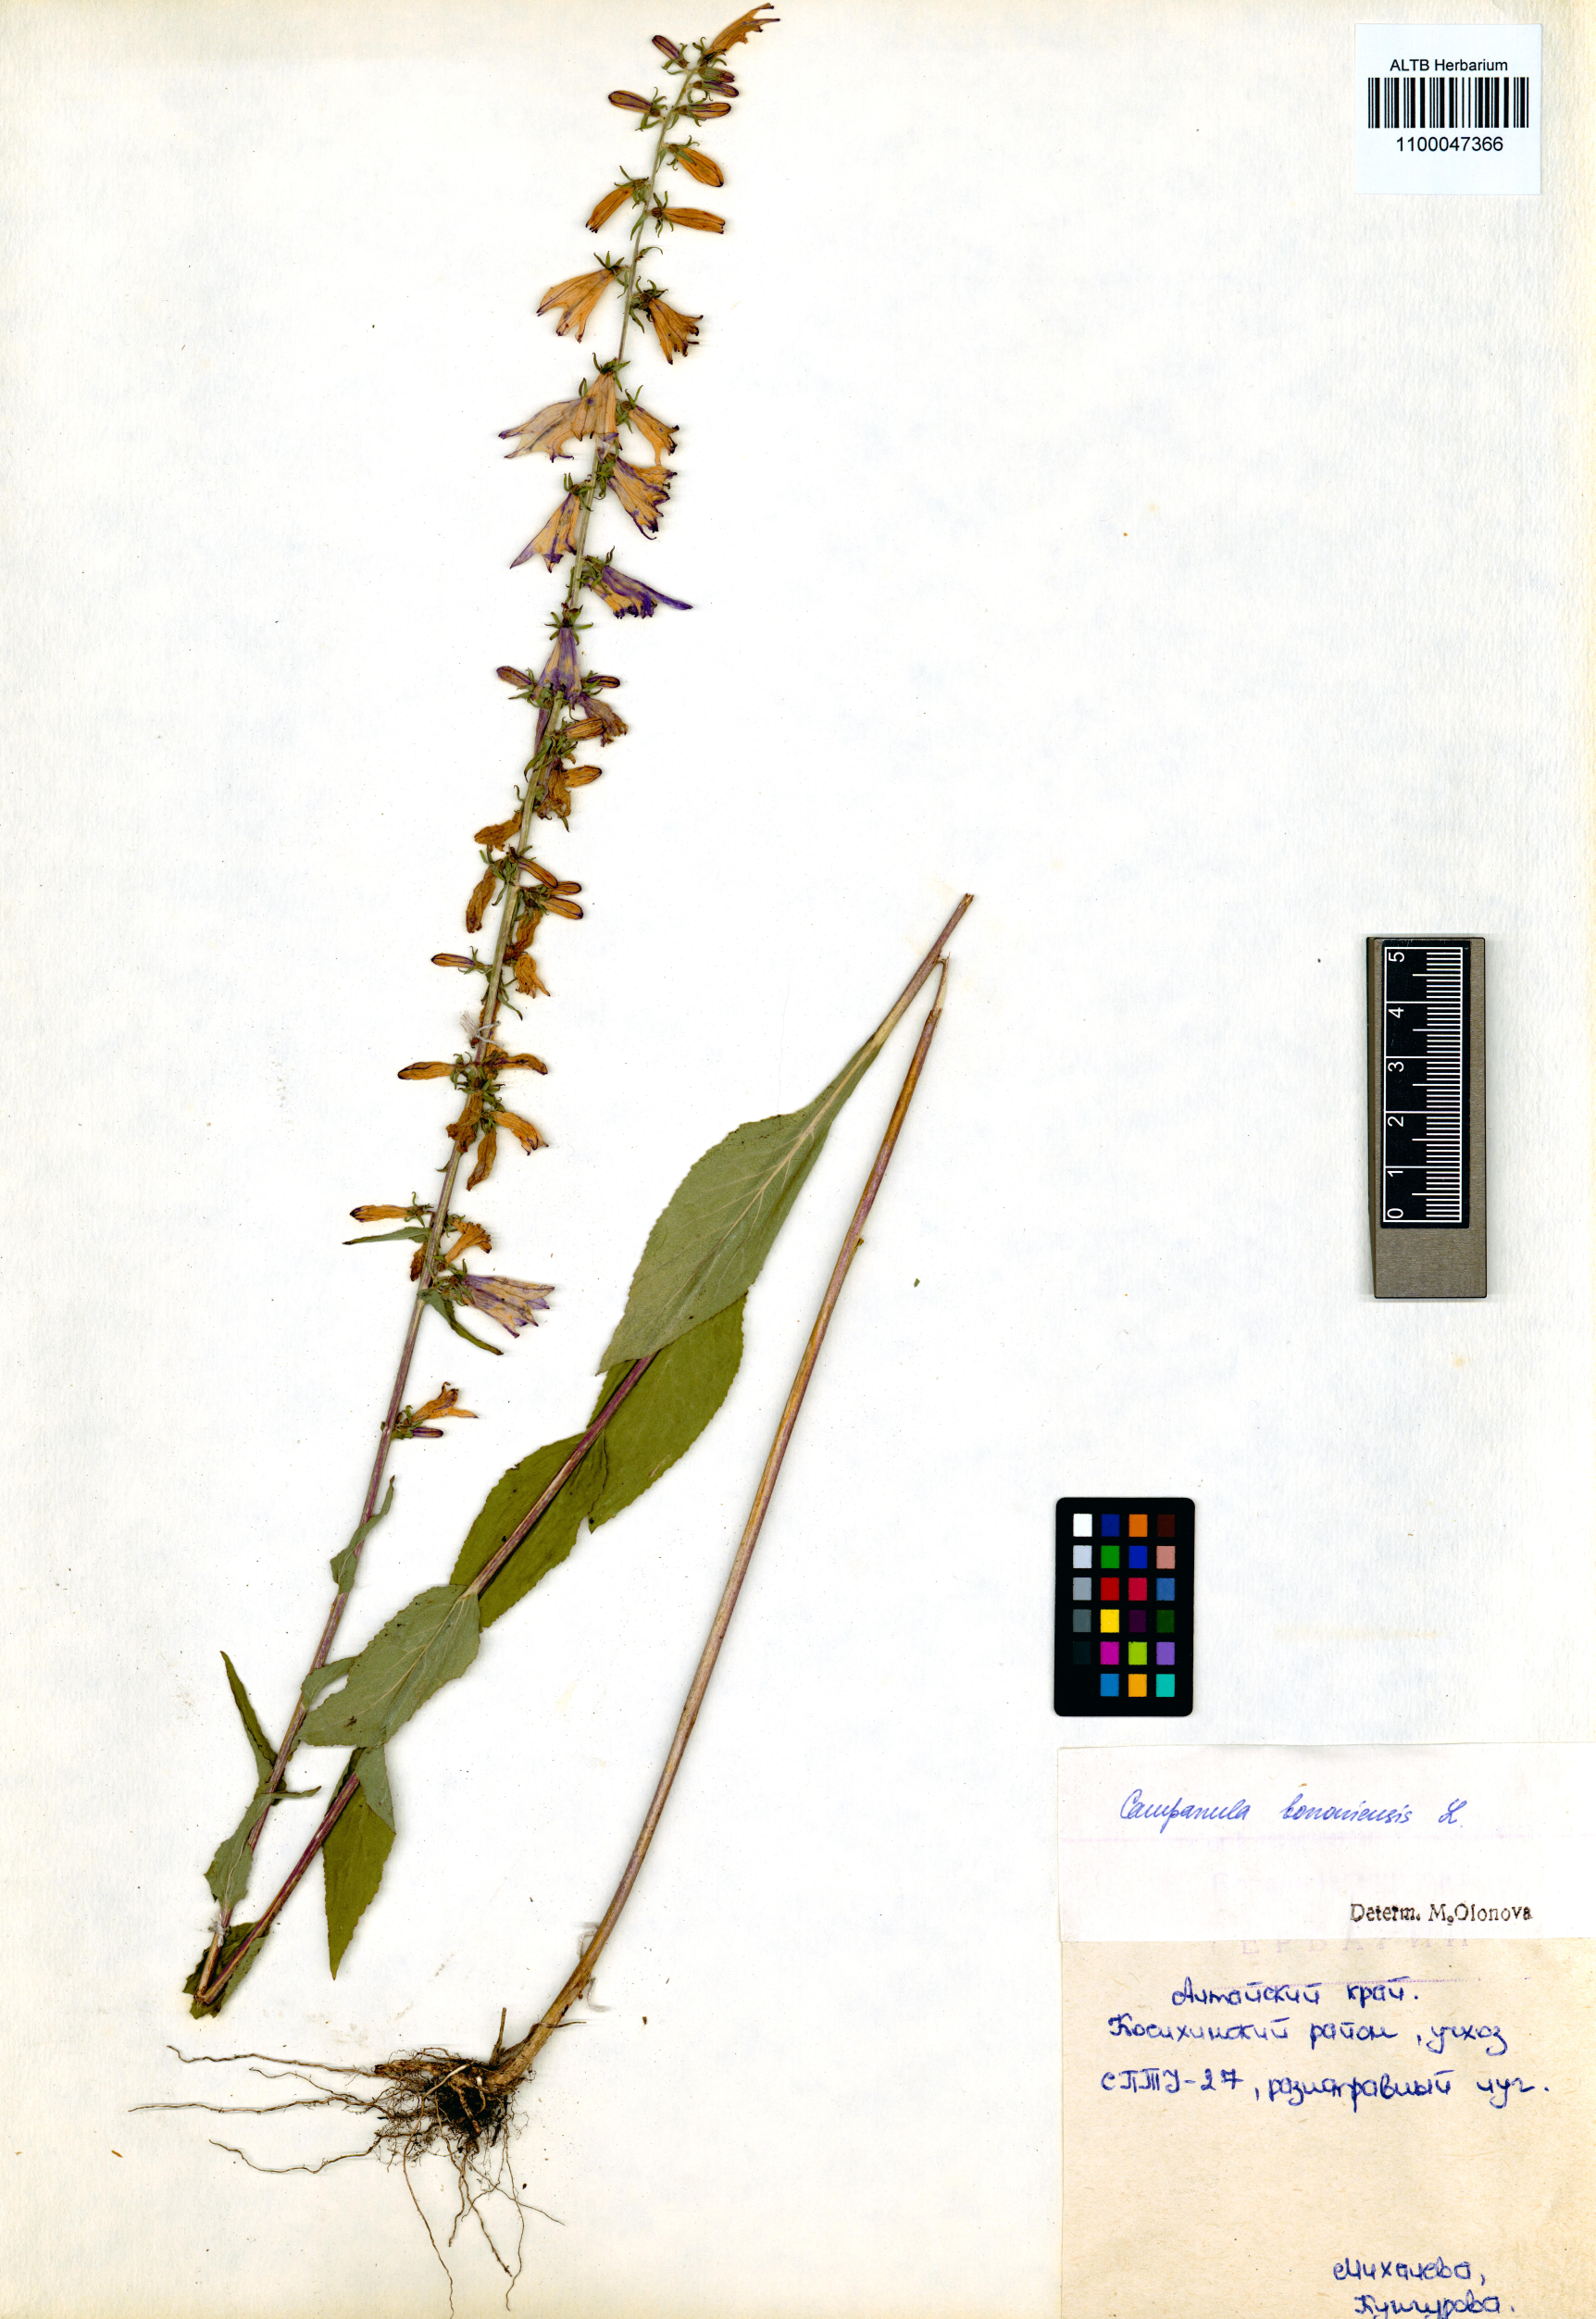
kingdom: Plantae
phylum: Tracheophyta
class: Magnoliopsida
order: Asterales
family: Campanulaceae
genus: Campanula
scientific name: Campanula bononiensis
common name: Pale bellflower
